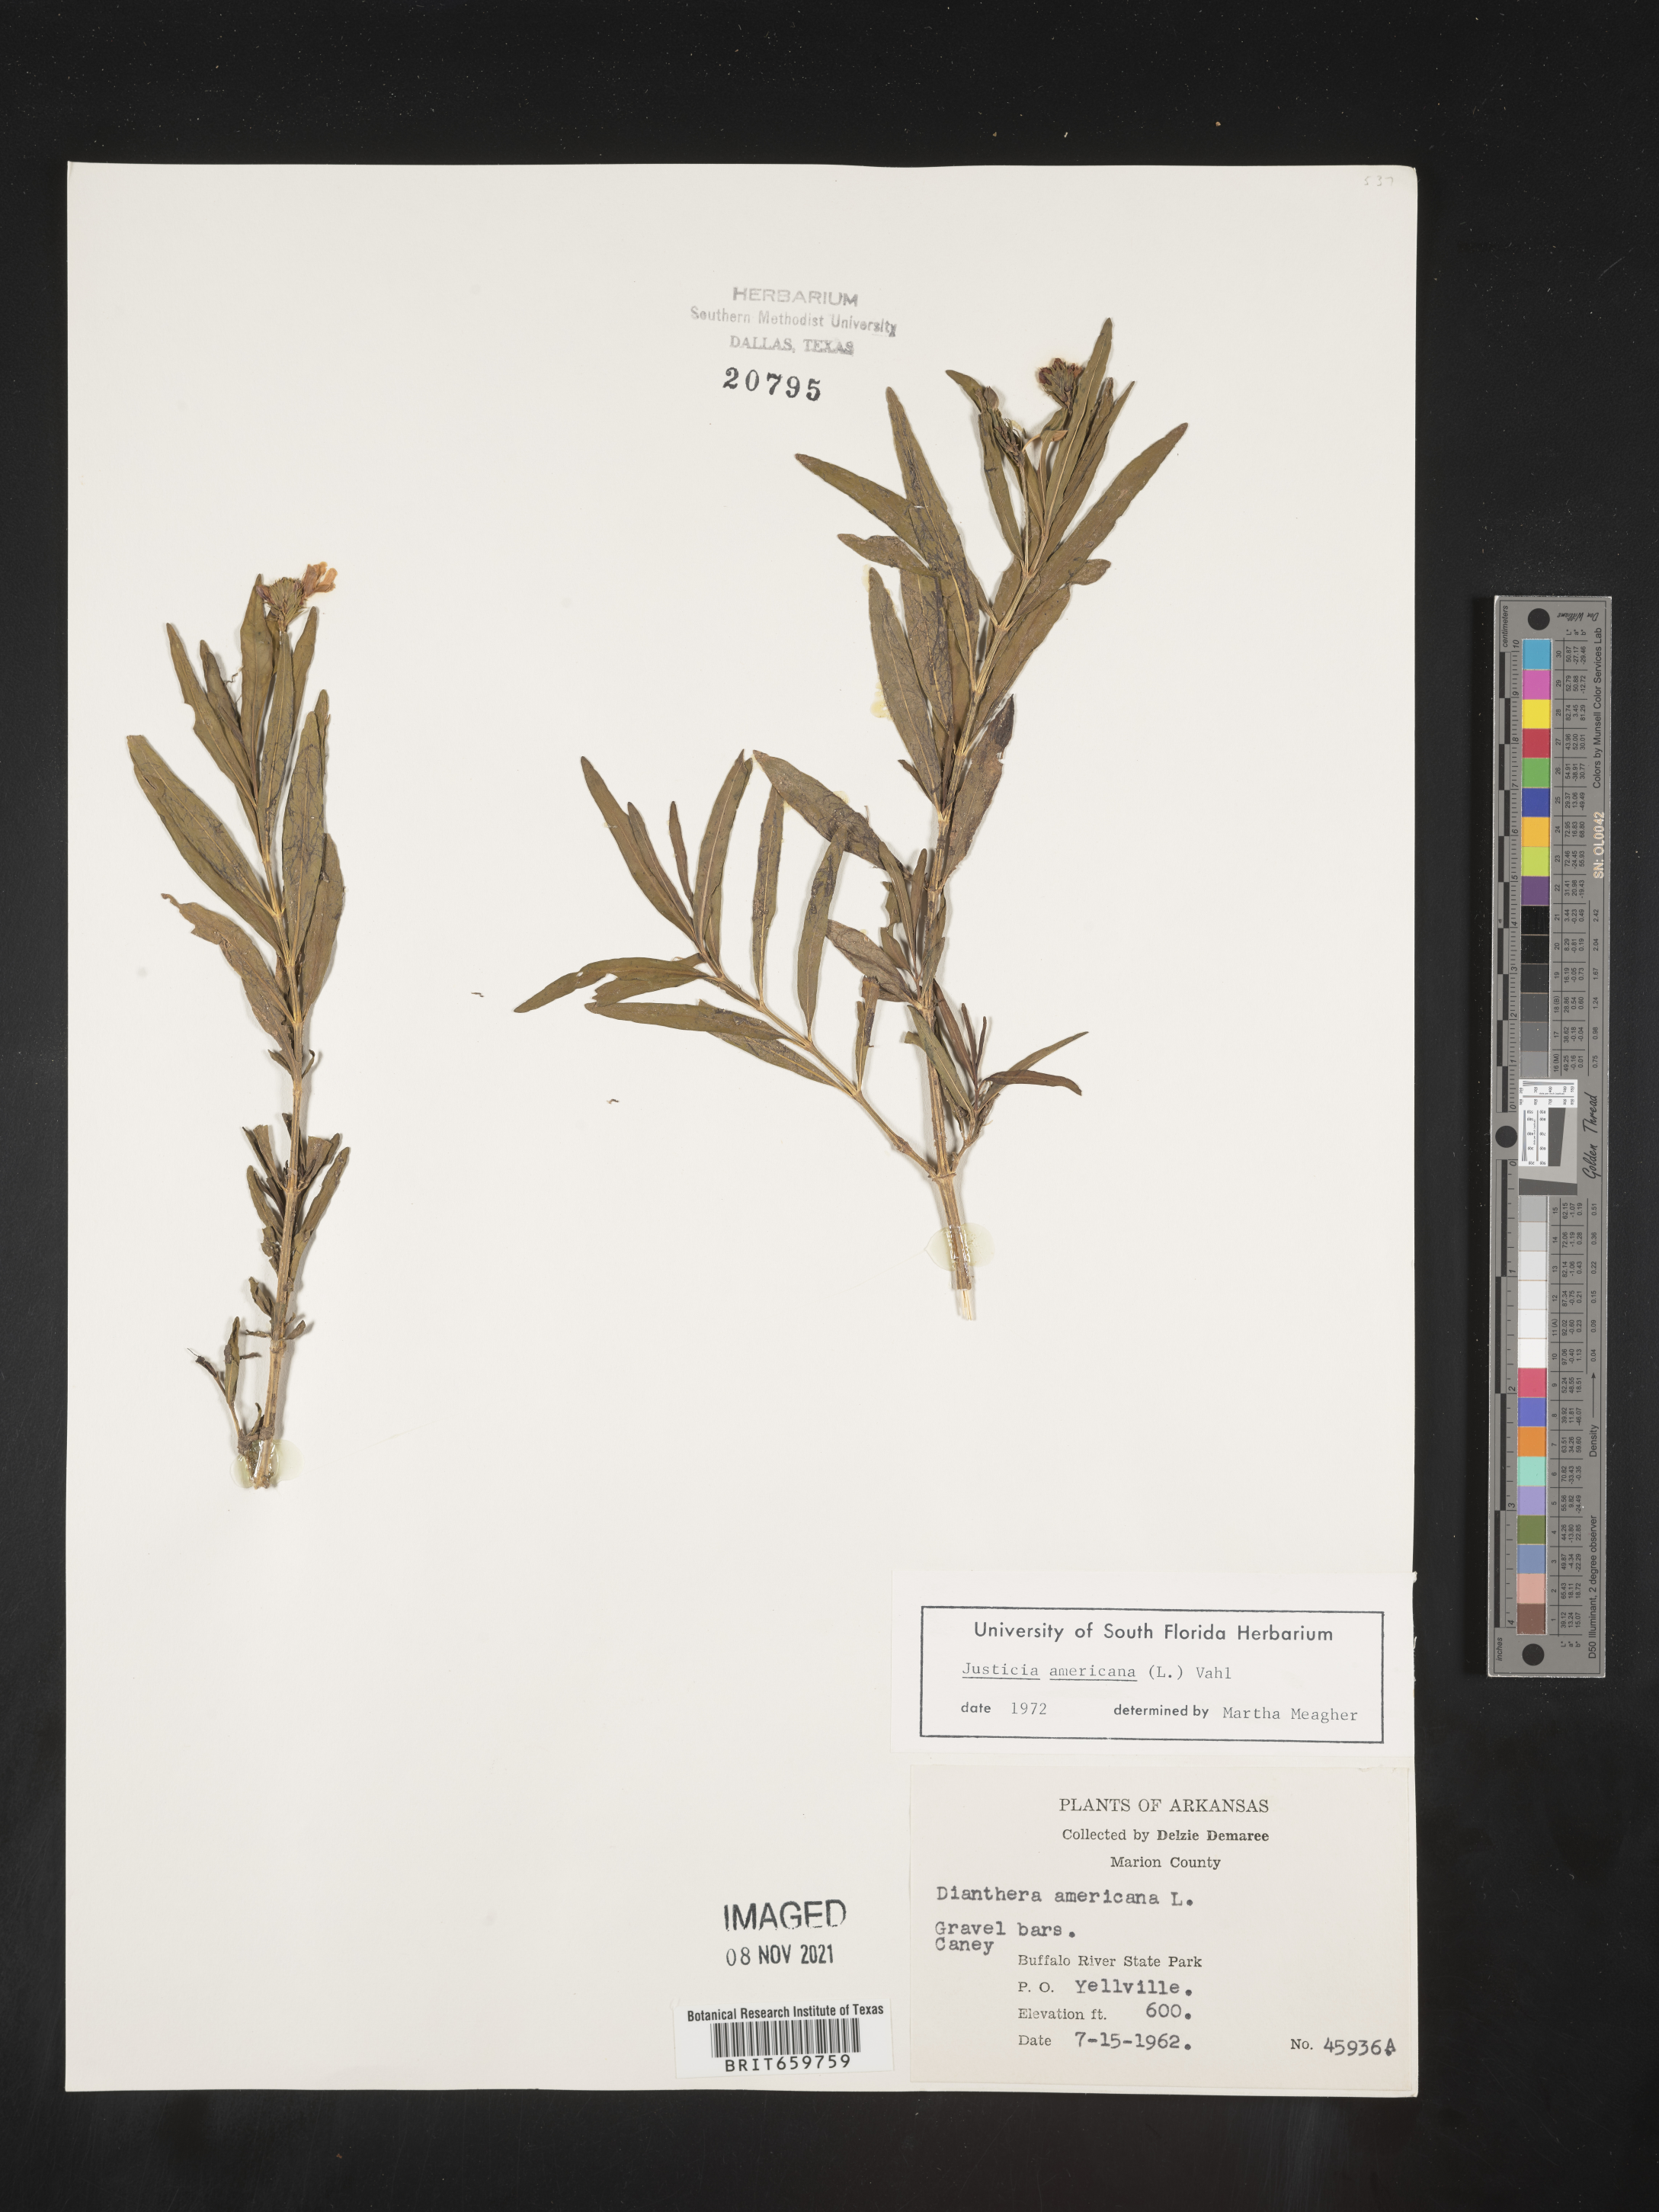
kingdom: Plantae
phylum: Tracheophyta
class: Magnoliopsida
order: Lamiales
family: Acanthaceae
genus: Dianthera
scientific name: Dianthera americana
